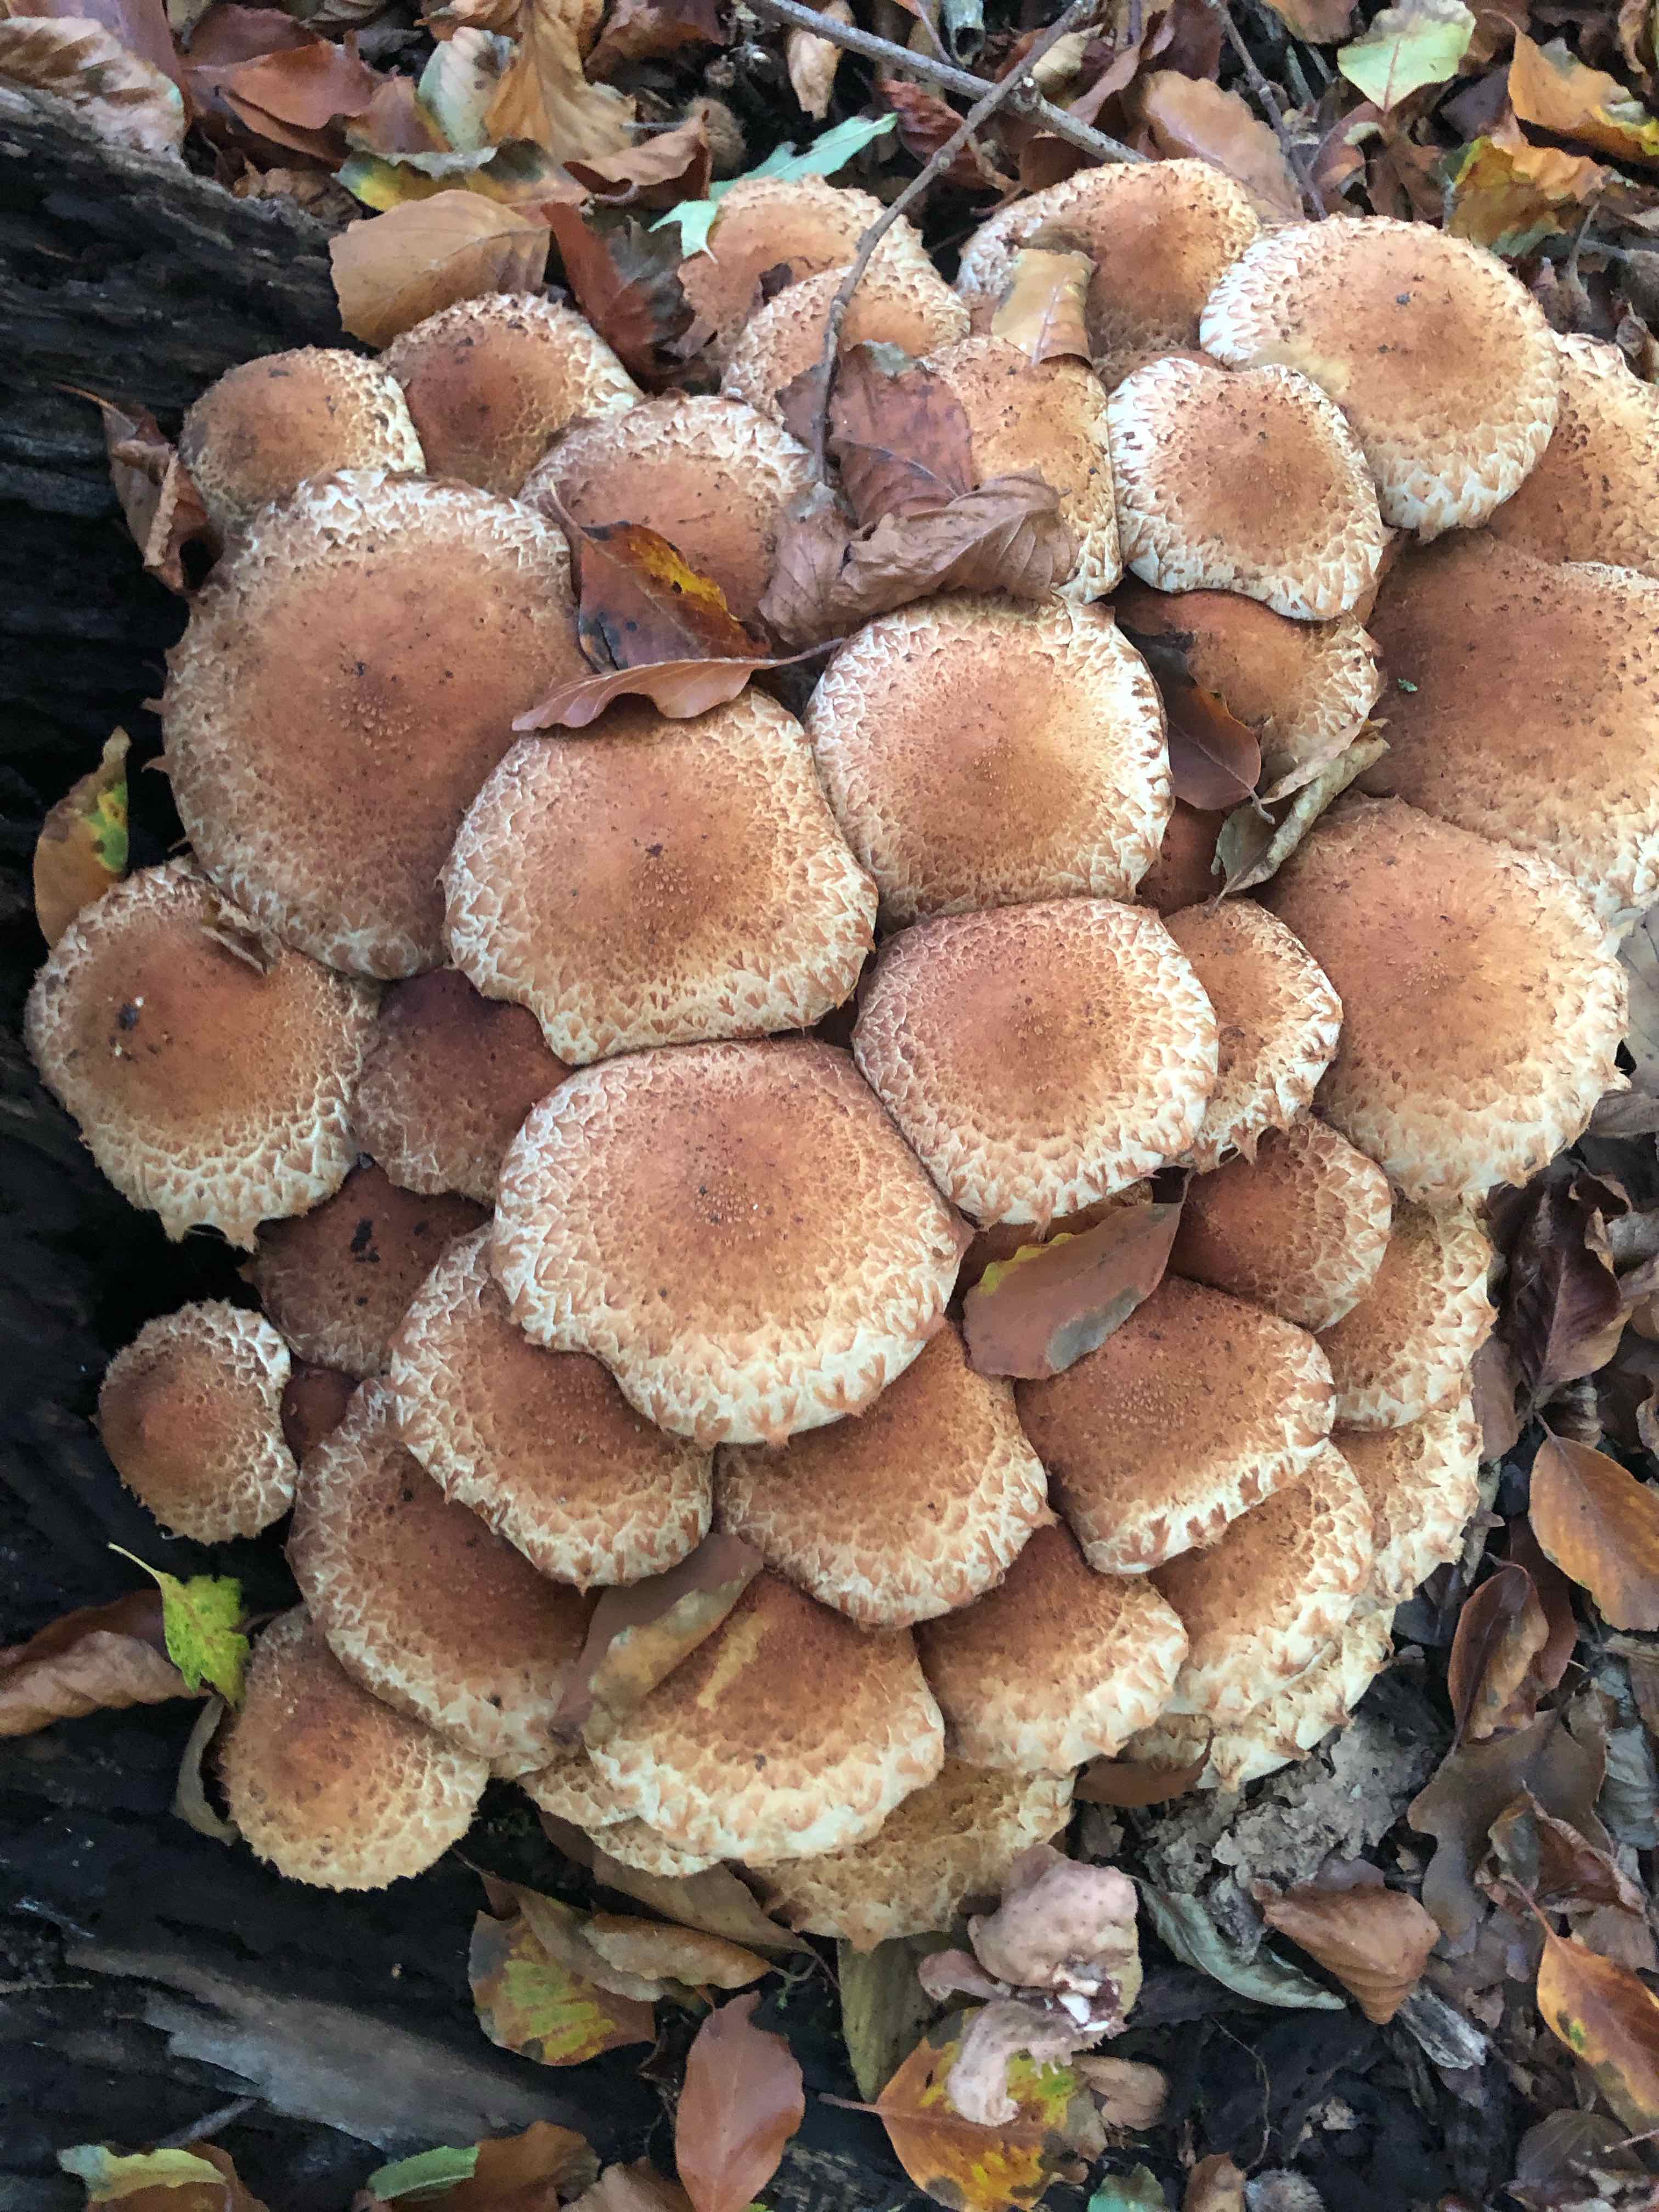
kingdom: Fungi
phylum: Basidiomycota
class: Agaricomycetes
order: Agaricales
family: Strophariaceae
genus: Pholiota
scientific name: Pholiota squarrosa
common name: krumskællet skælhat
